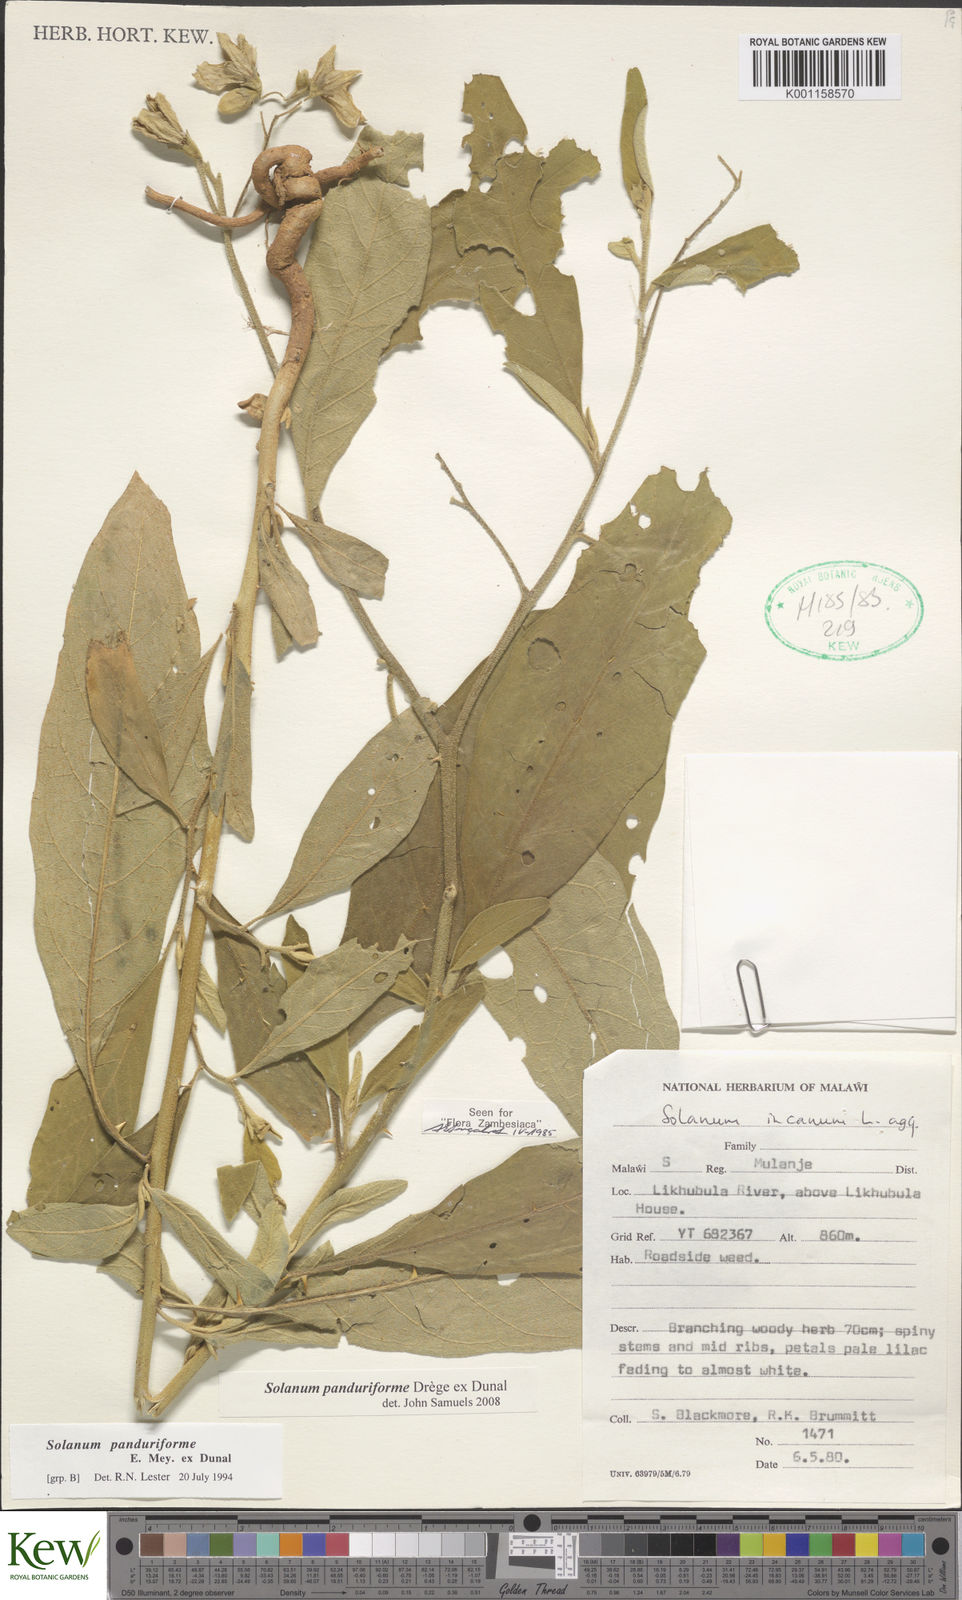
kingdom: Plantae
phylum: Tracheophyta
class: Magnoliopsida
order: Solanales
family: Solanaceae
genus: Solanum
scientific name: Solanum campylacanthum
